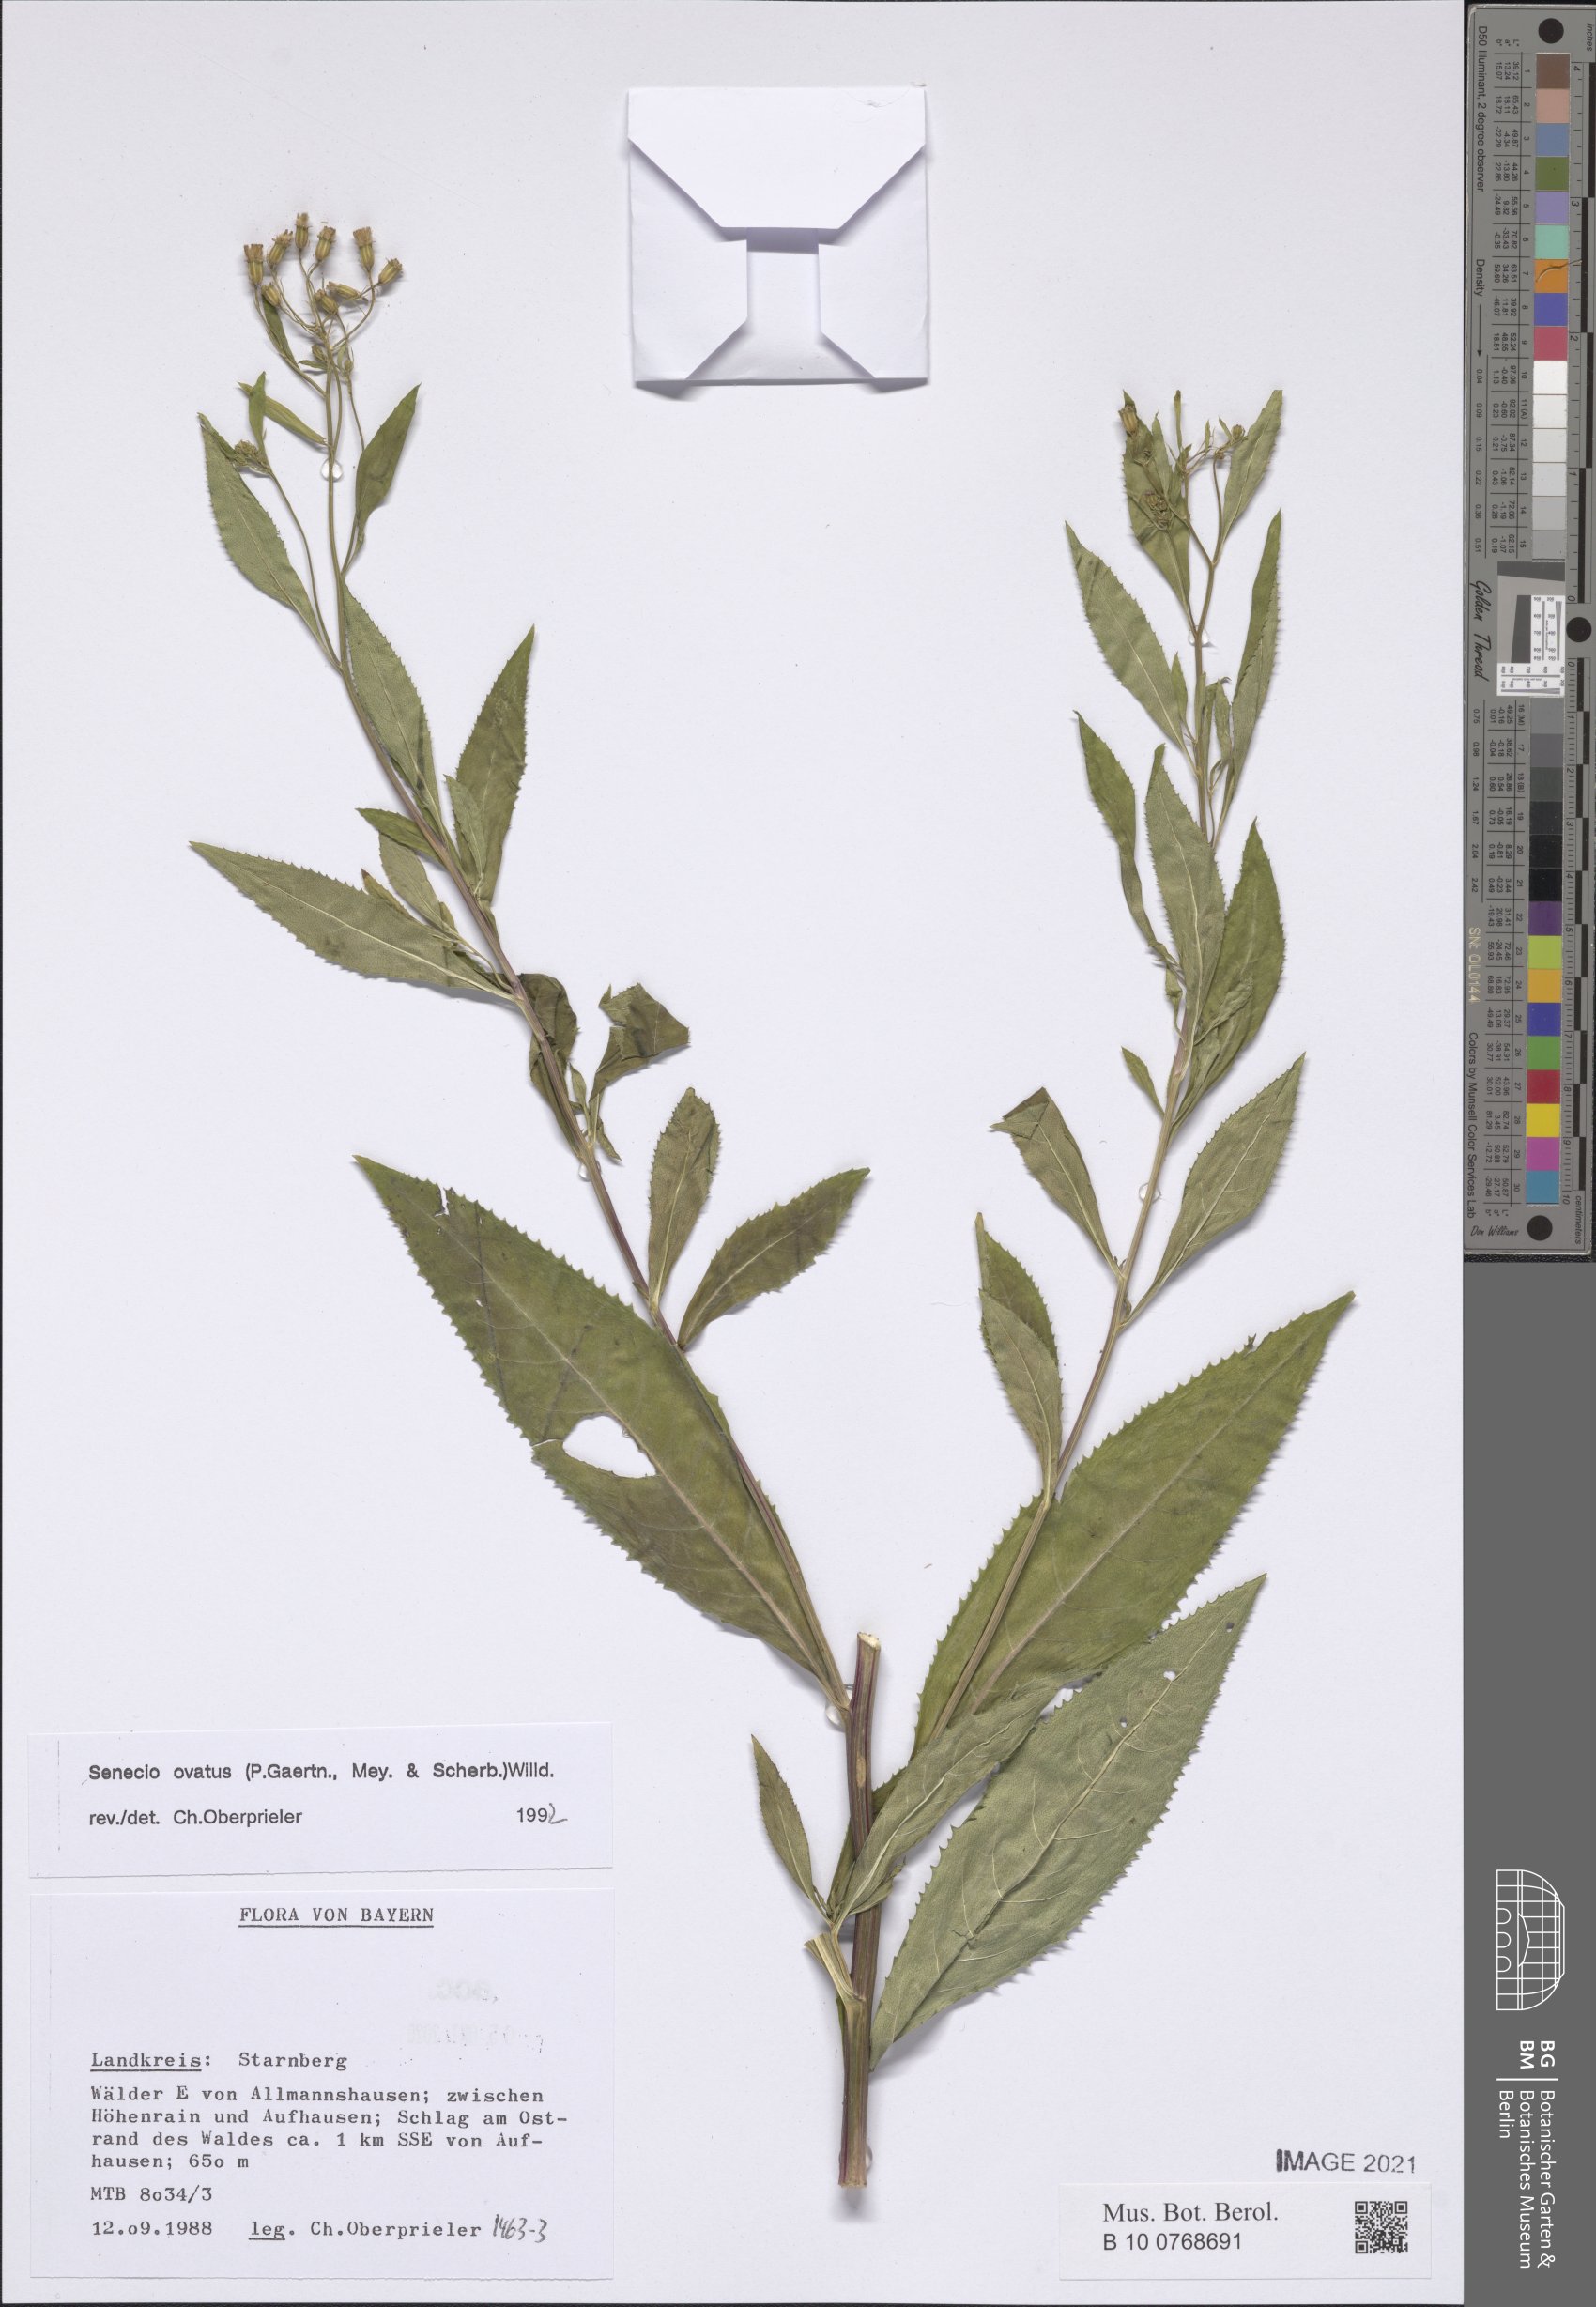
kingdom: Plantae
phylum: Tracheophyta
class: Magnoliopsida
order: Asterales
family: Asteraceae
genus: Senecio
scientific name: Senecio ovatus
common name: Wood ragwort
